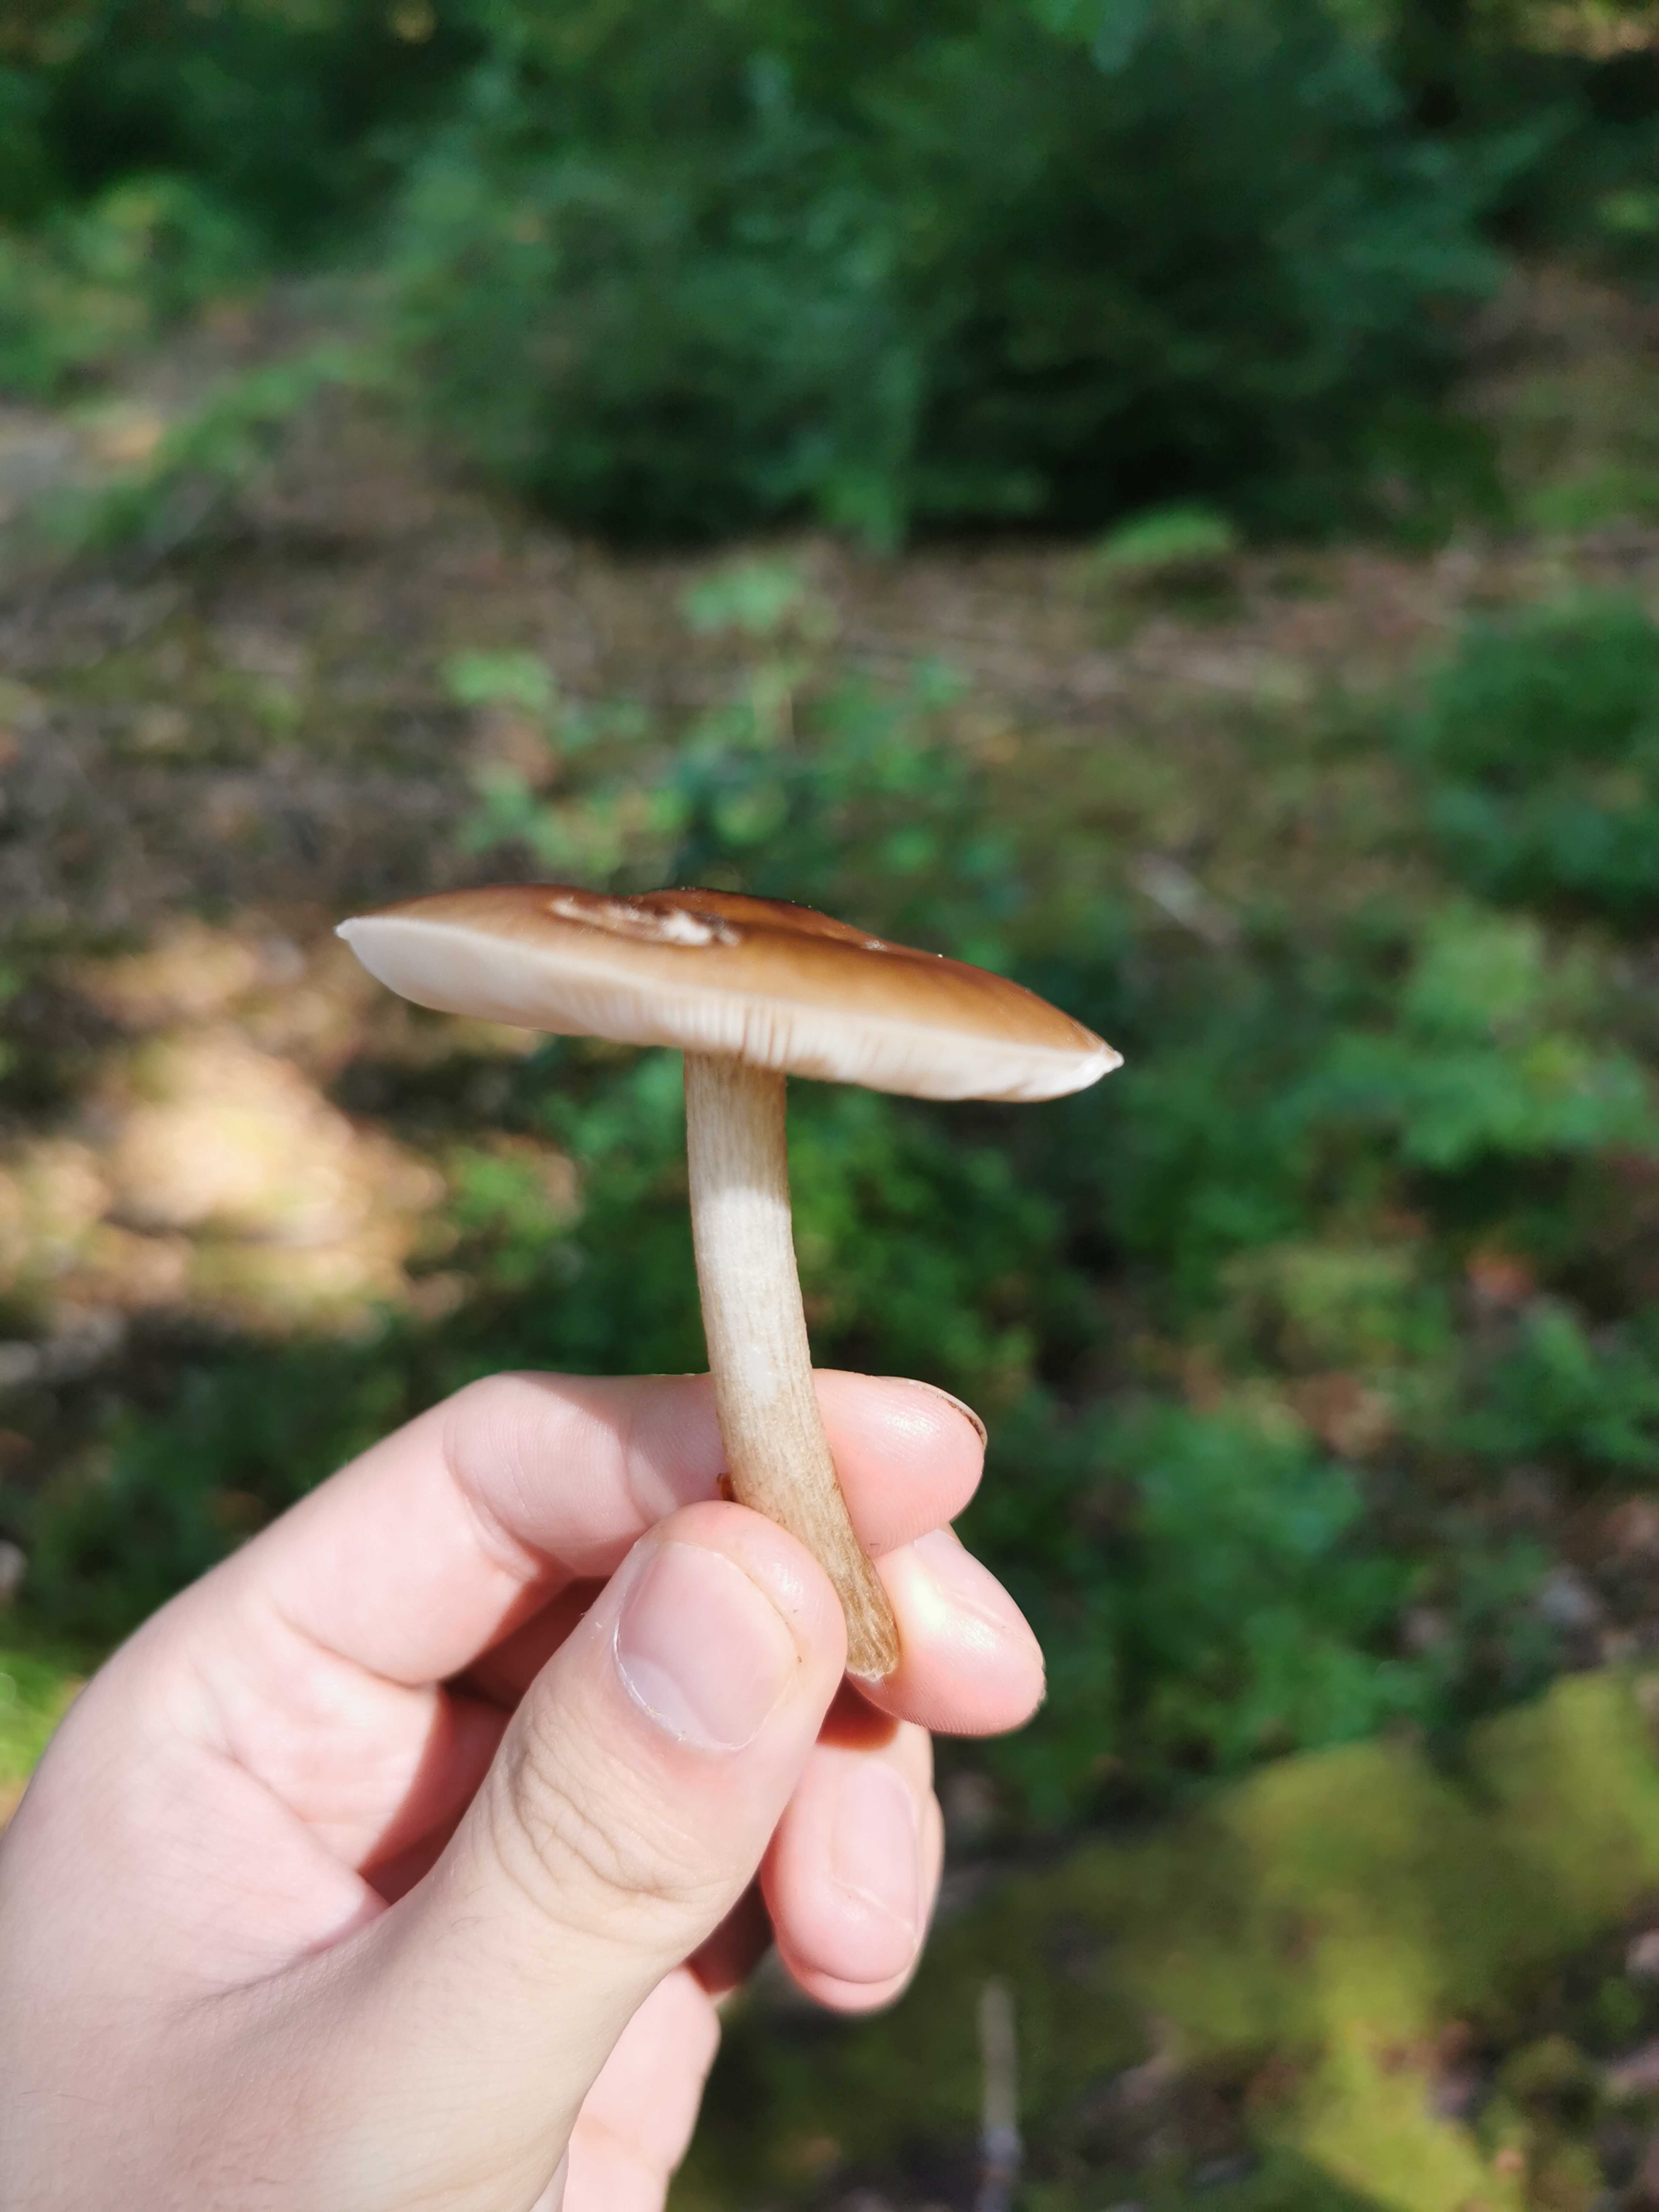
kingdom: Fungi
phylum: Basidiomycota
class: Agaricomycetes
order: Agaricales
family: Pluteaceae
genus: Pluteus
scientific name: Pluteus
